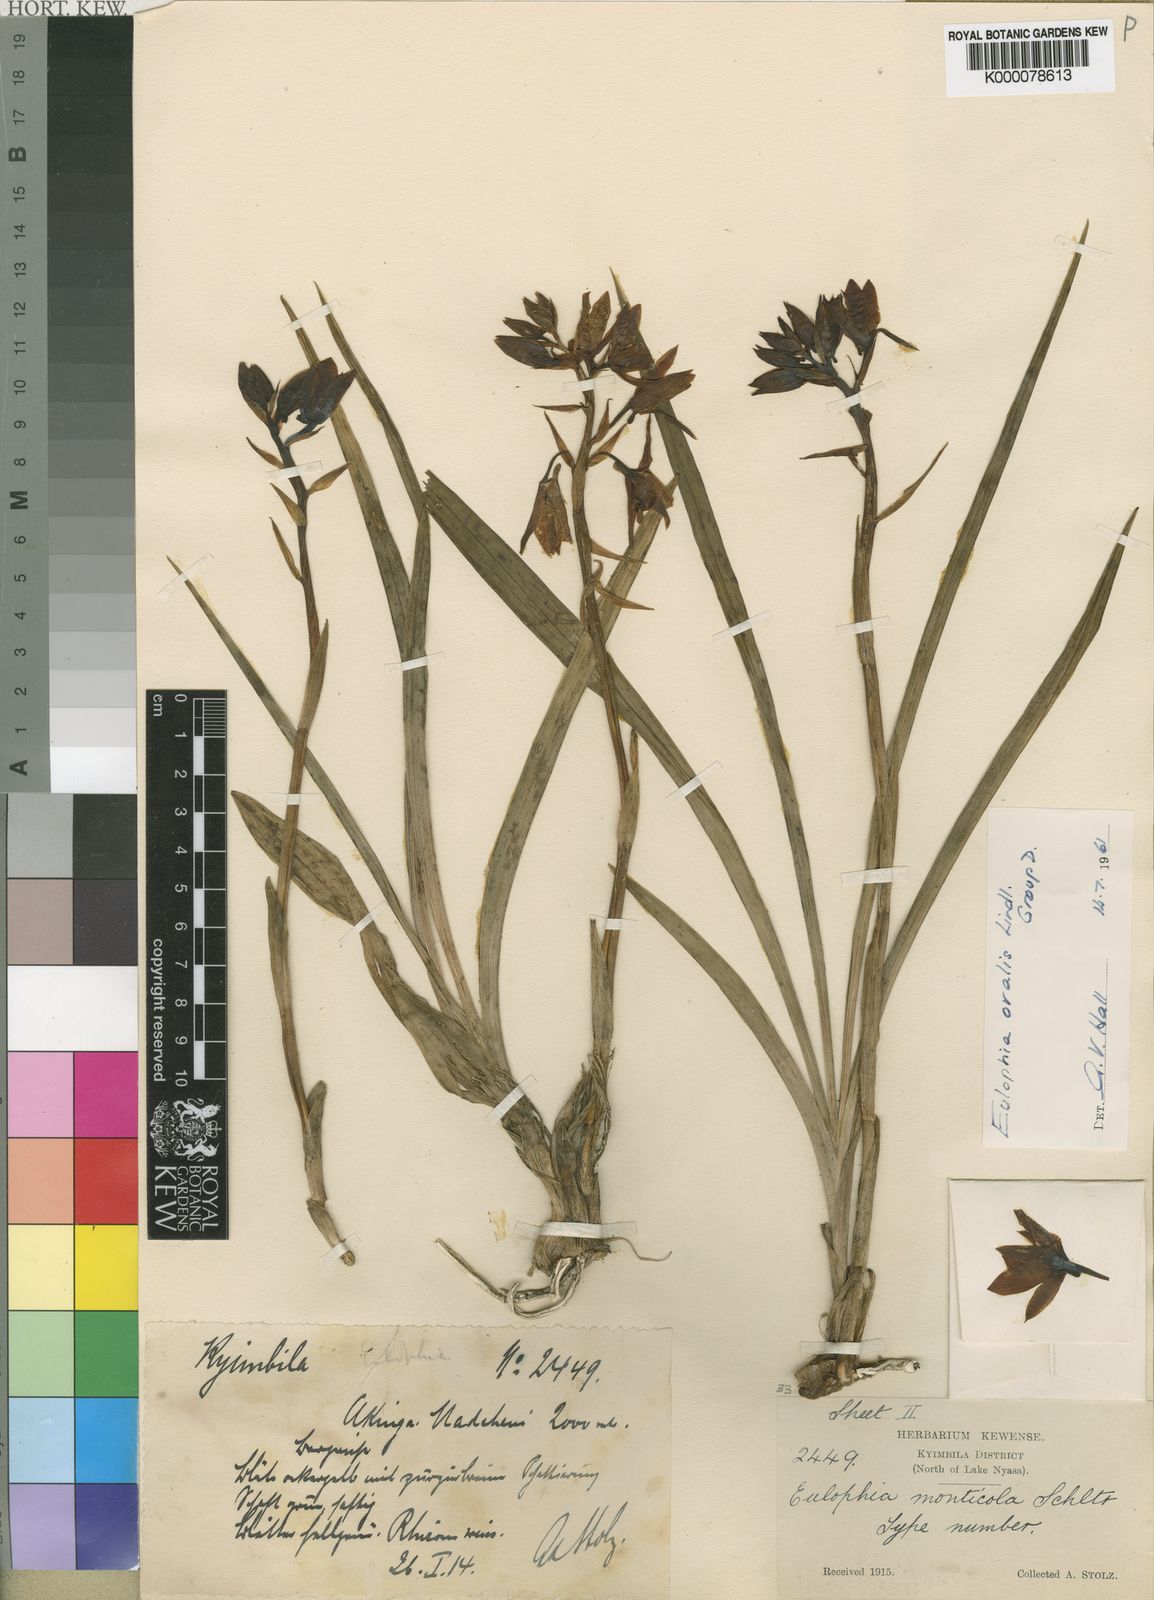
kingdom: Plantae
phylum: Tracheophyta
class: Liliopsida
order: Asparagales
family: Orchidaceae
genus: Eulophia
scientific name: Eulophia monticola
